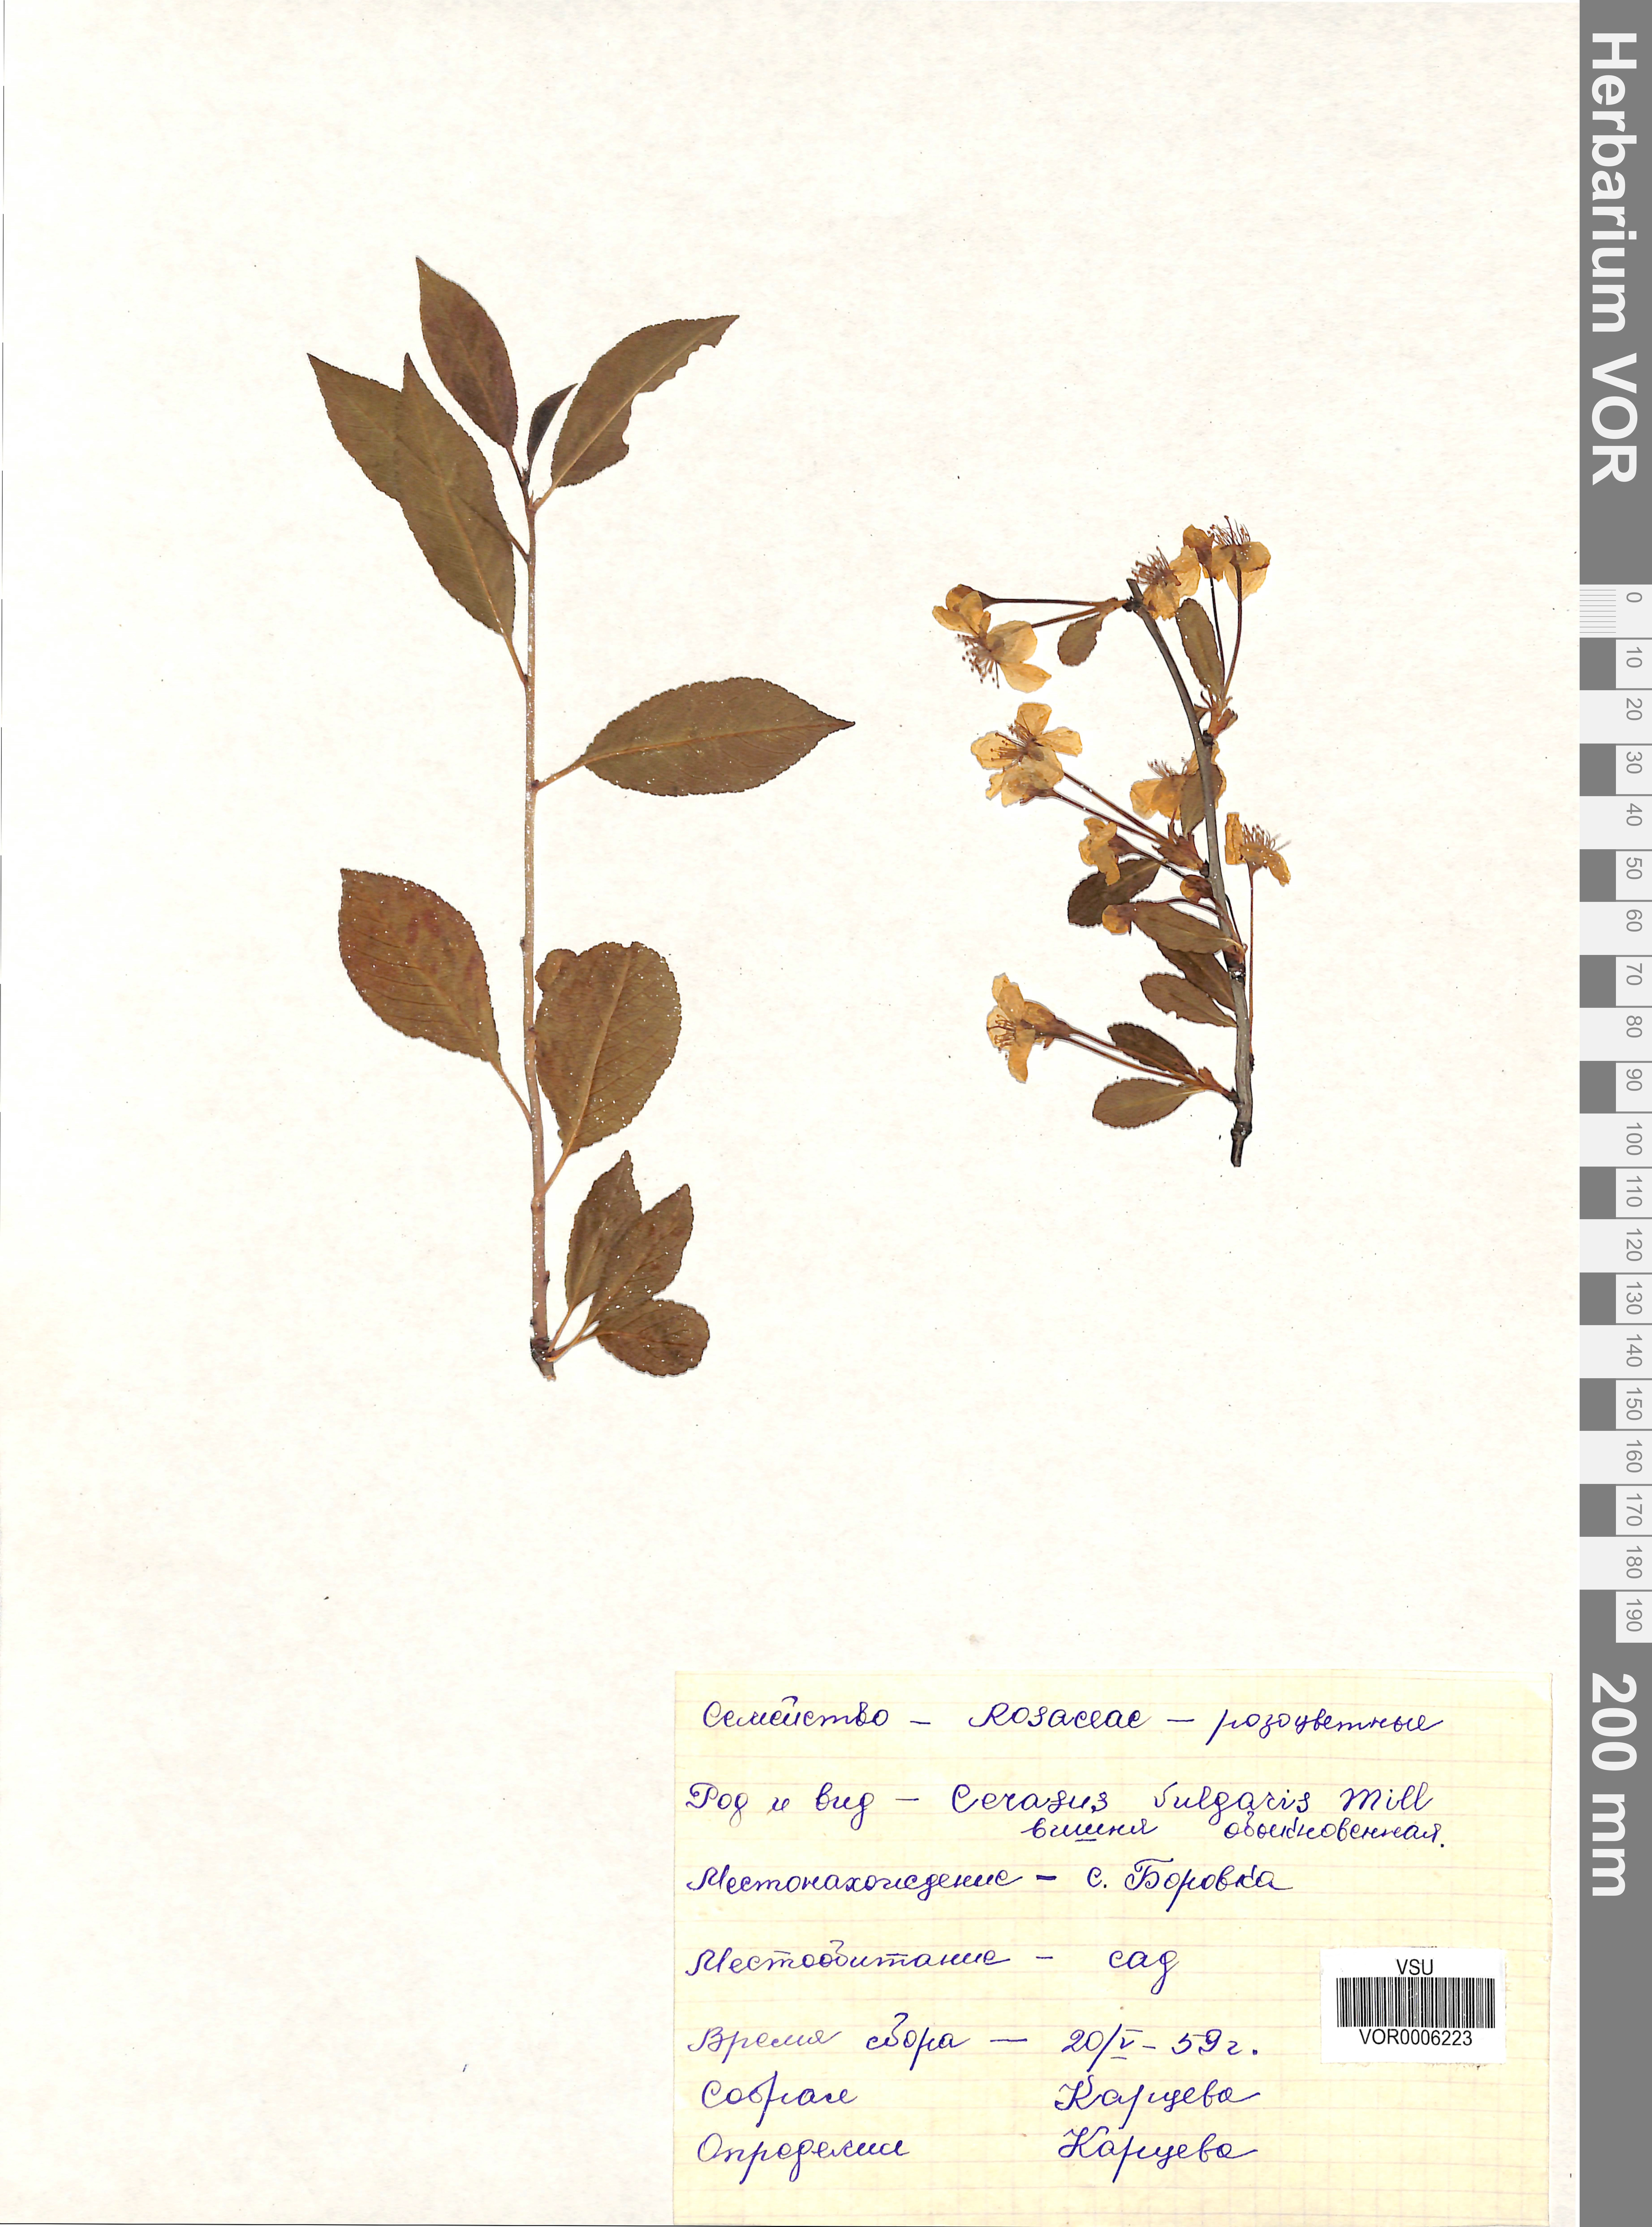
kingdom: Plantae
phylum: Tracheophyta
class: Magnoliopsida
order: Rosales
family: Rosaceae
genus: Prunus
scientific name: Prunus cerasus
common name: Morello cherry
